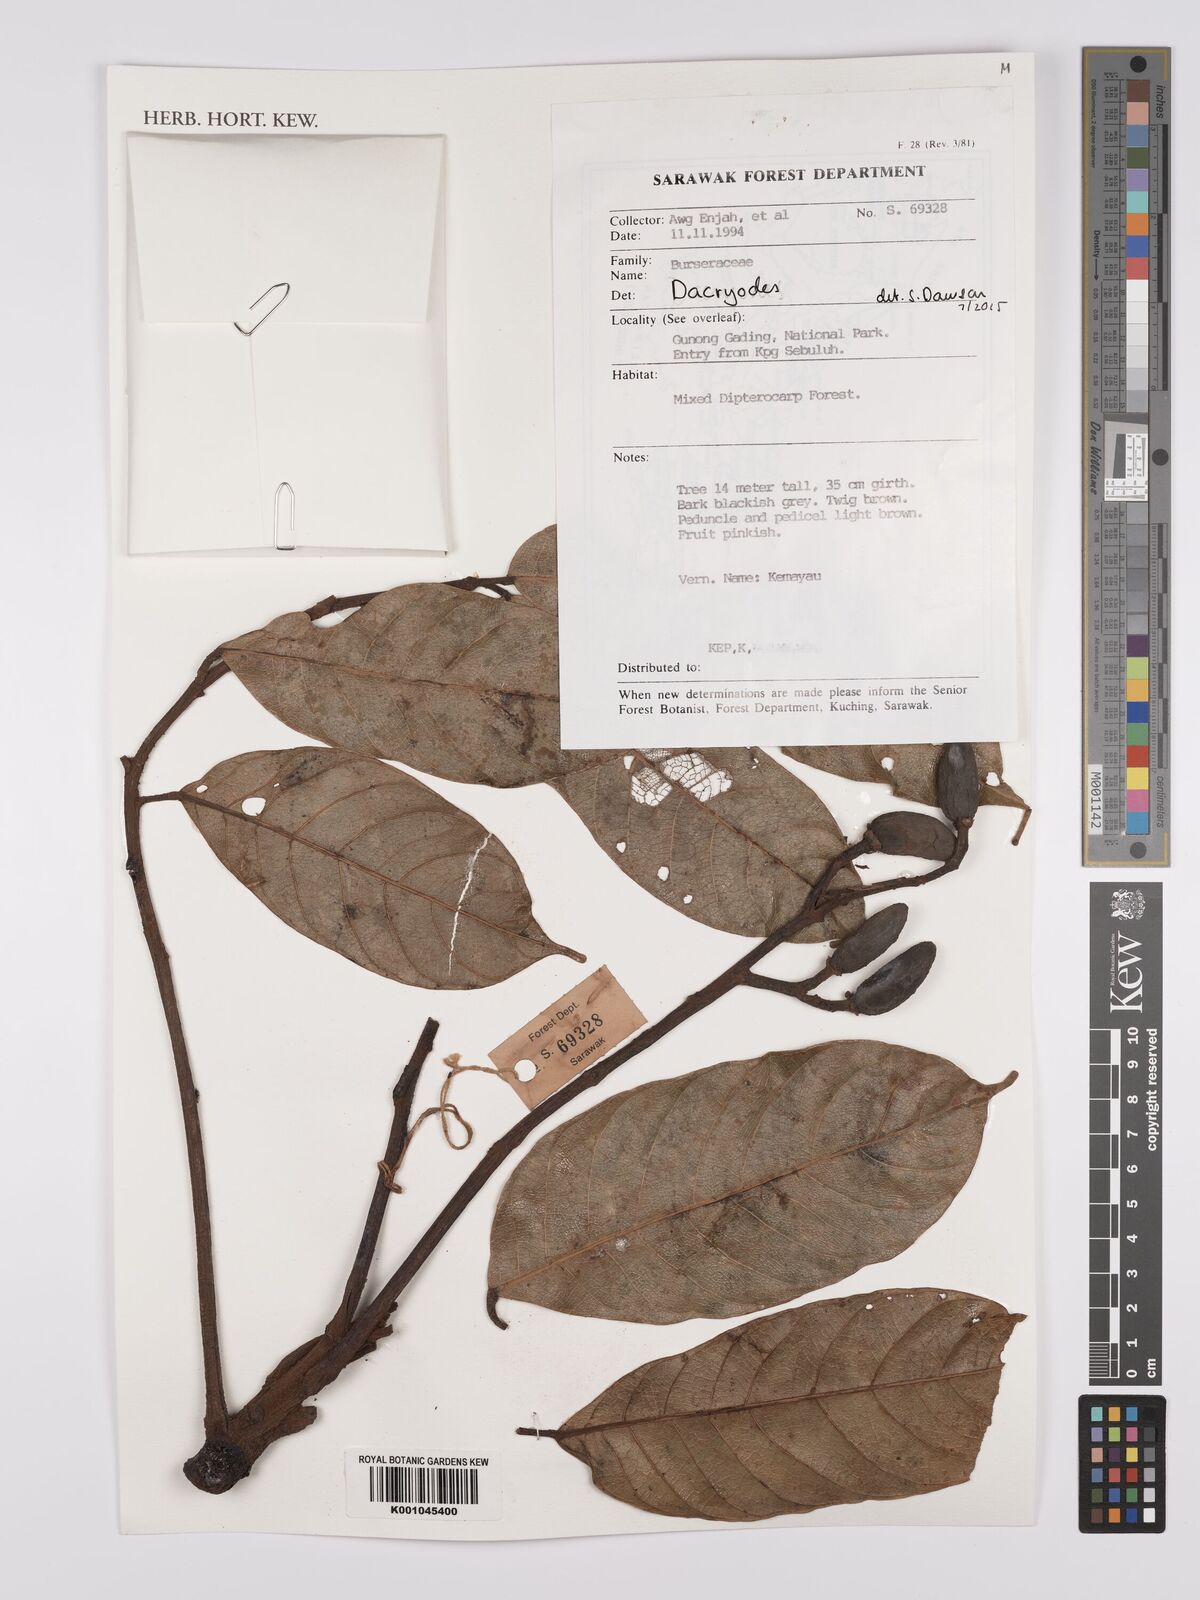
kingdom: Plantae
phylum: Tracheophyta
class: Magnoliopsida
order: Sapindales
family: Burseraceae
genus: Dacryodes
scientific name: Dacryodes
